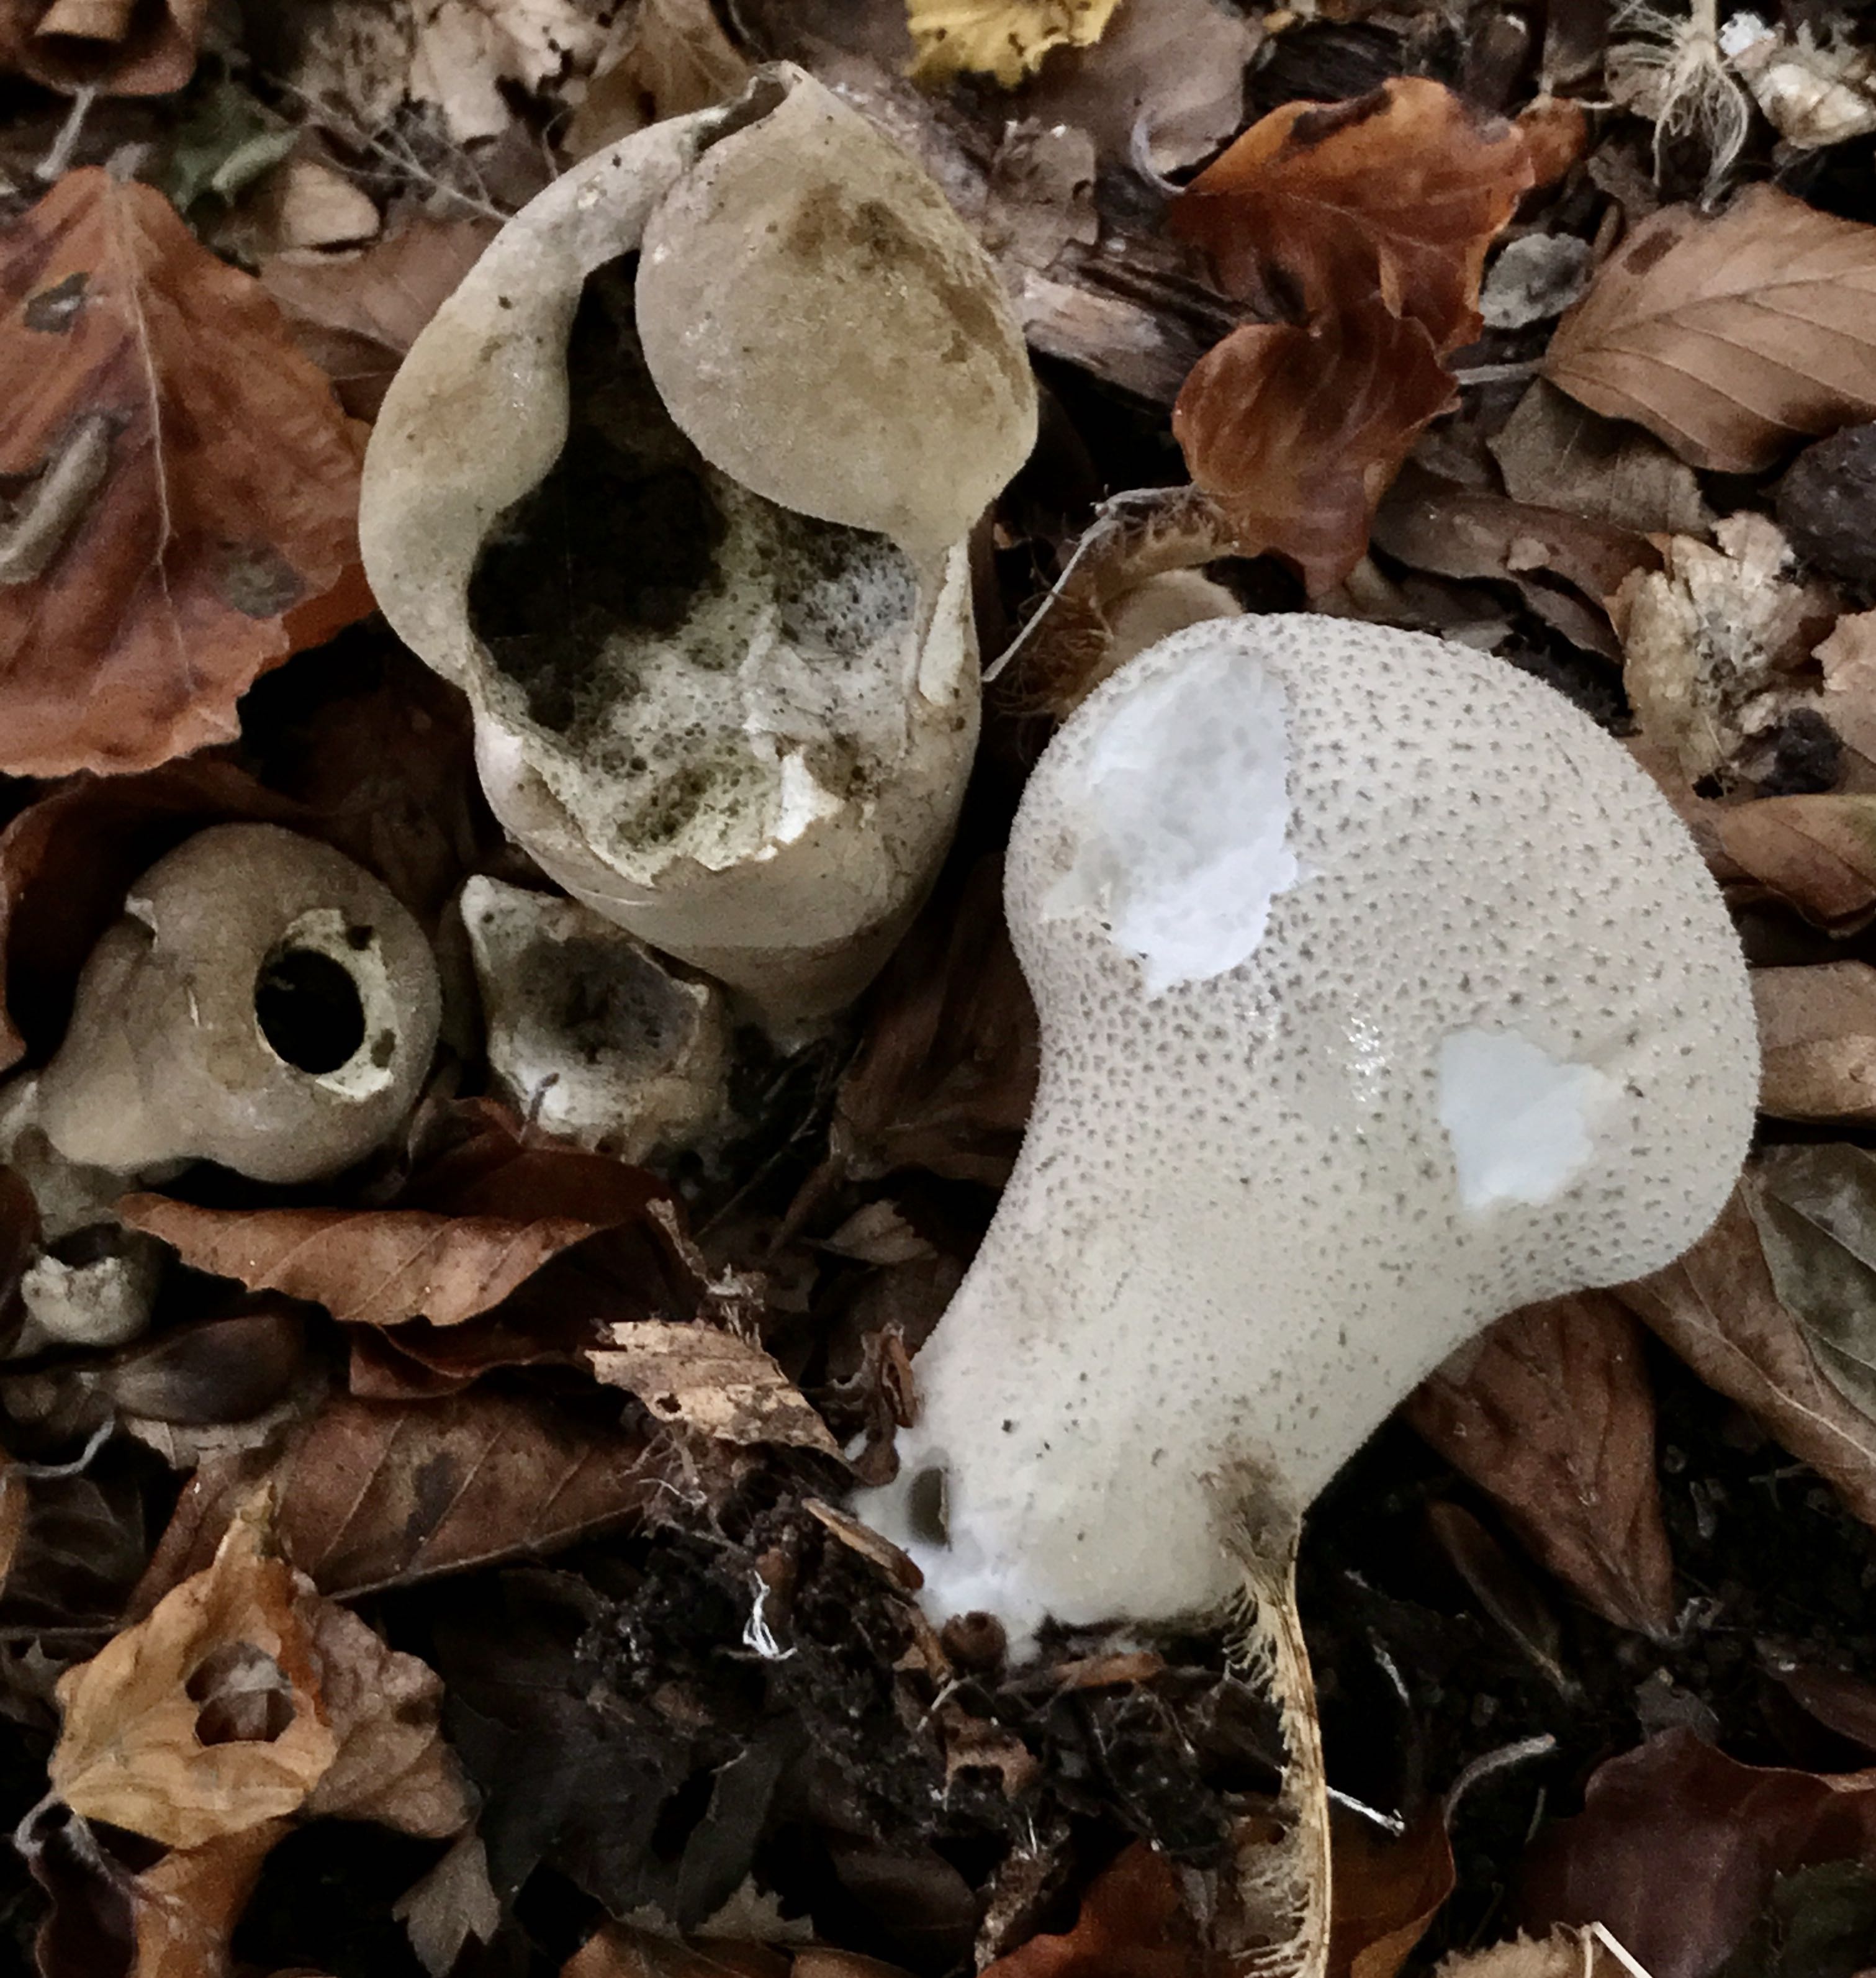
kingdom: Fungi
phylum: Basidiomycota
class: Agaricomycetes
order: Agaricales
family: Lycoperdaceae
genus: Lycoperdon
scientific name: Lycoperdon excipuliforme
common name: højstokket støvbold
